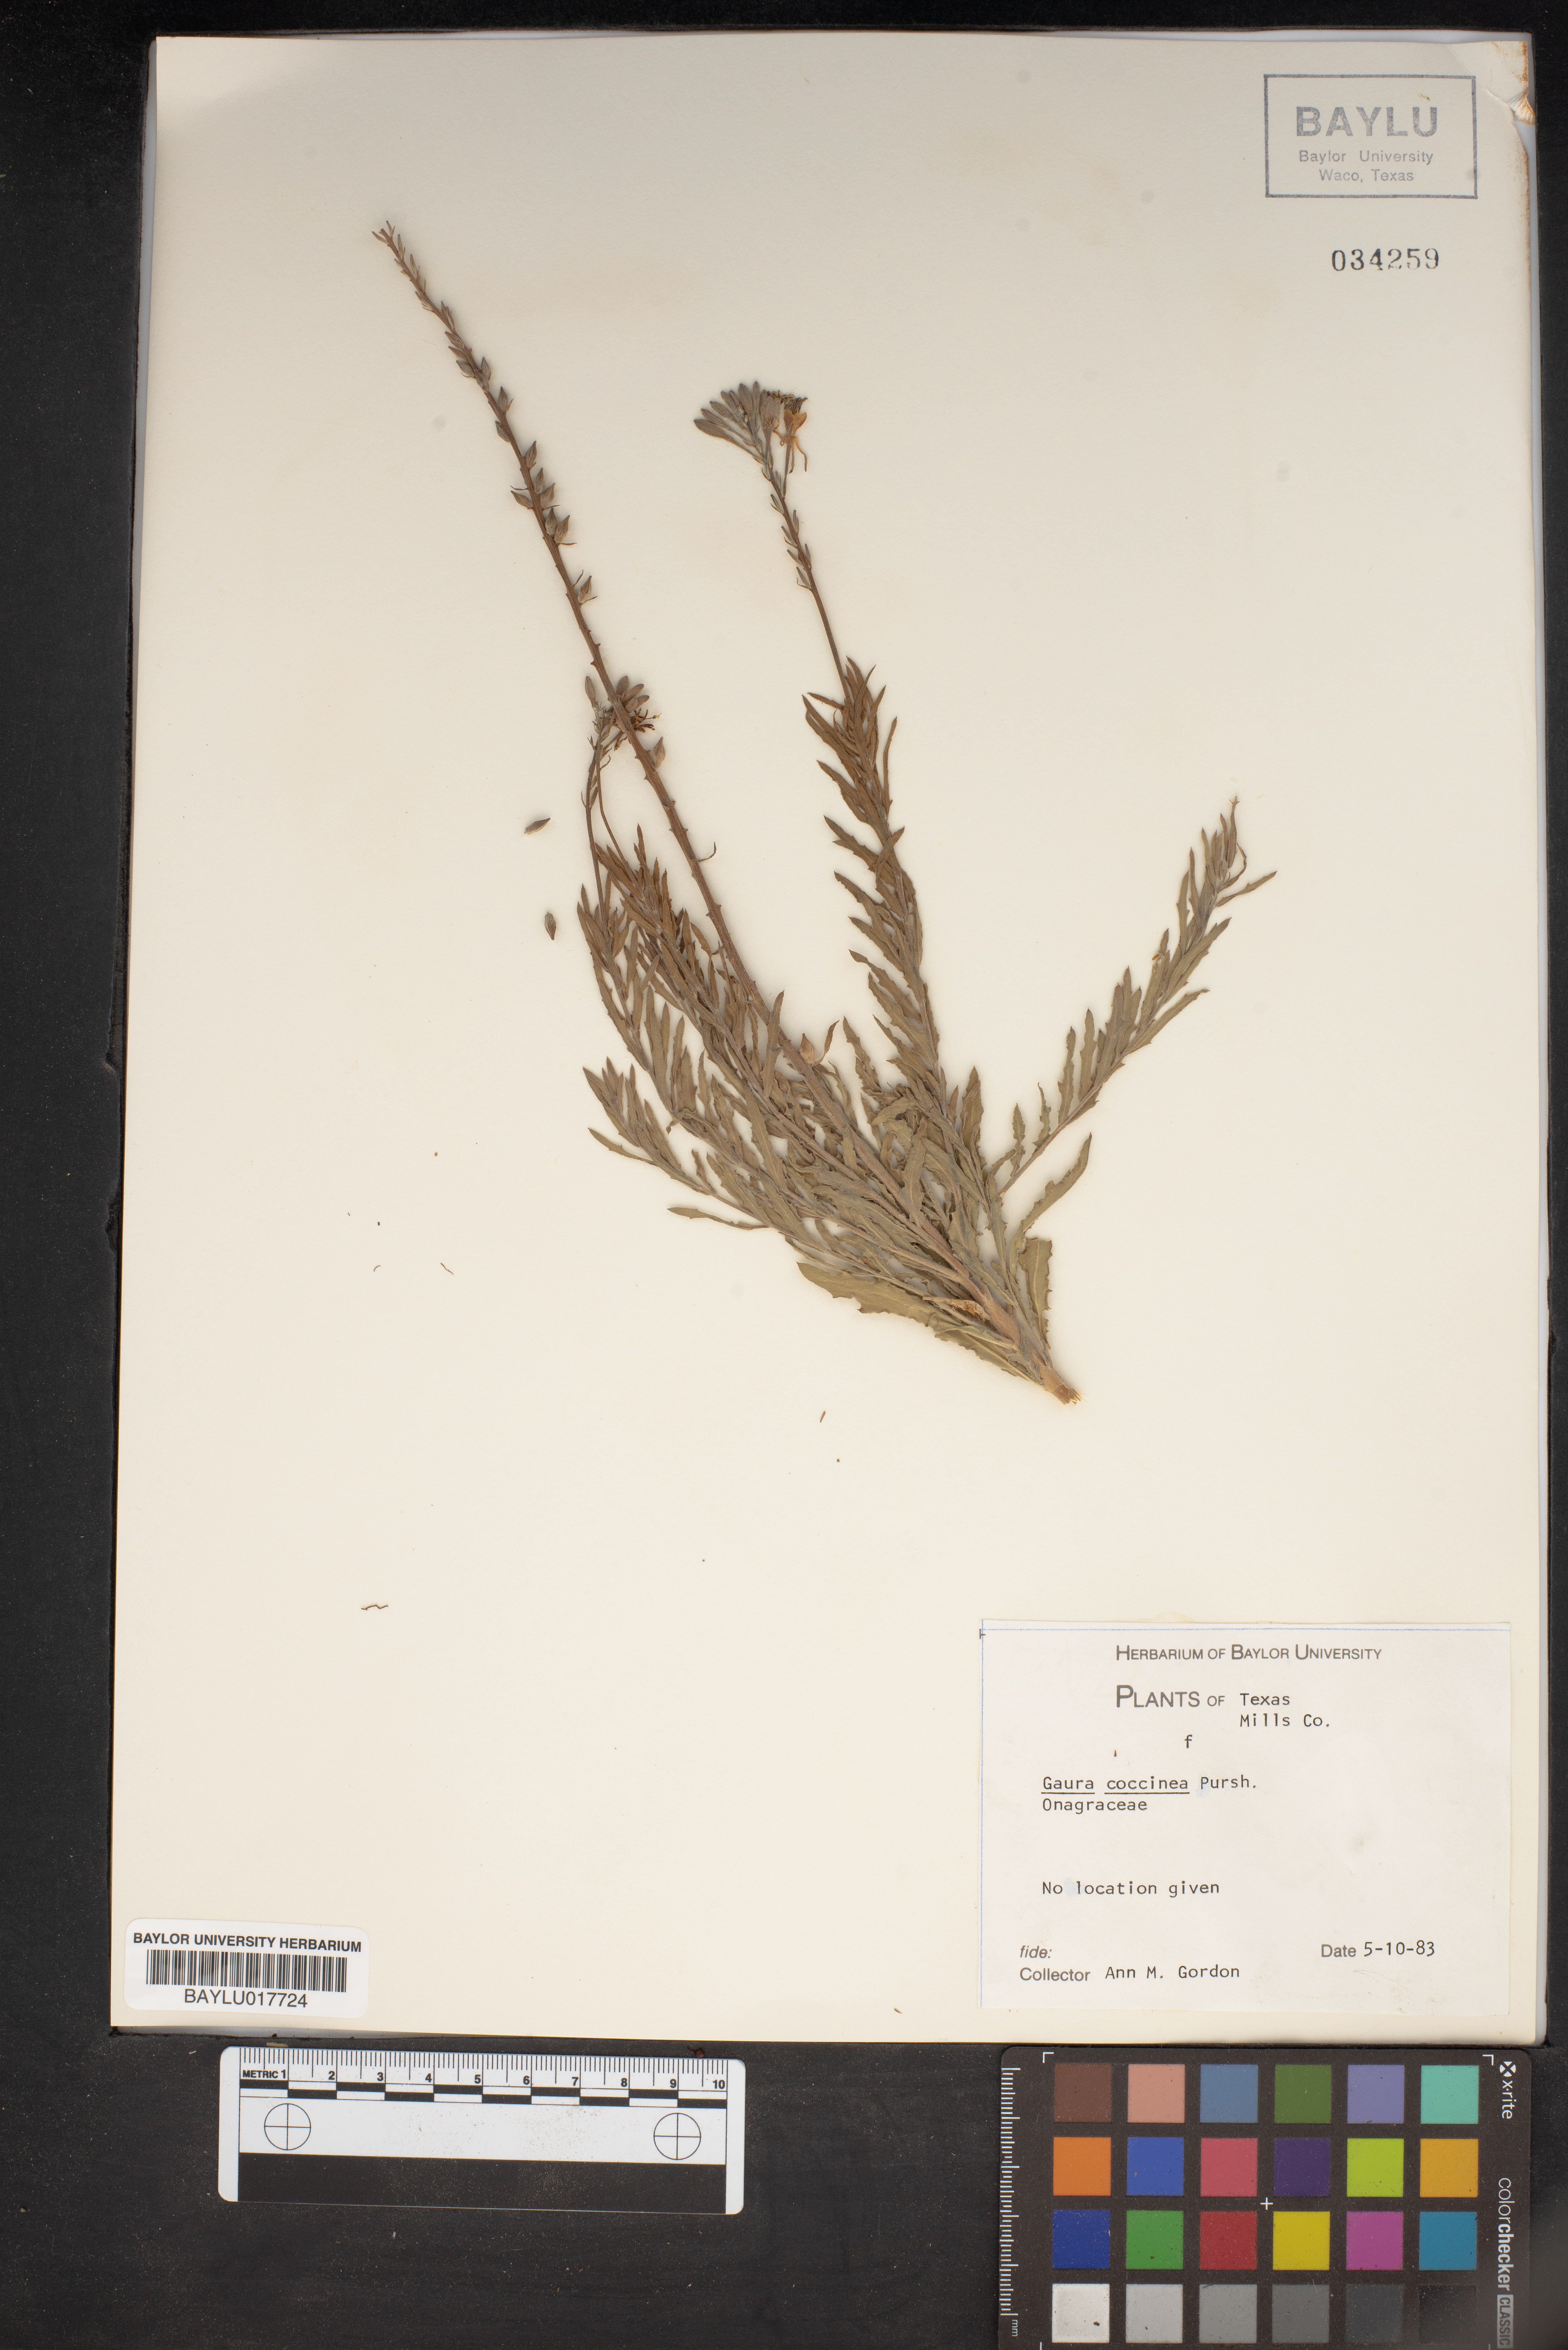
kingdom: Plantae
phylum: Tracheophyta
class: Magnoliopsida
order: Myrtales
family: Onagraceae
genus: Oenothera
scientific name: Oenothera suffrutescens
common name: Scarlet beeblossom
